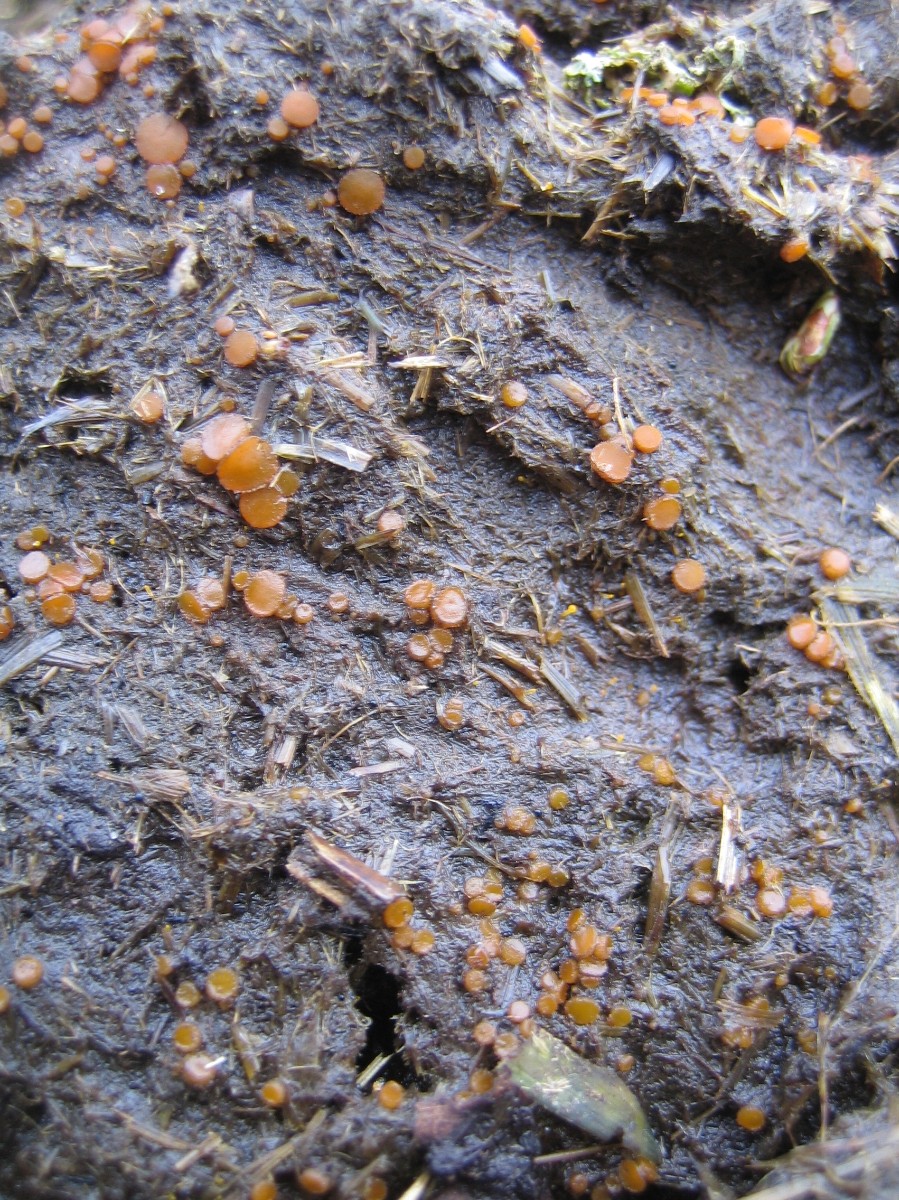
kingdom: Fungi
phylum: Ascomycota
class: Pezizomycetes
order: Pezizales
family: Pyronemataceae
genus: Cheilymenia
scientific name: Cheilymenia granulata
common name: møgbæger
